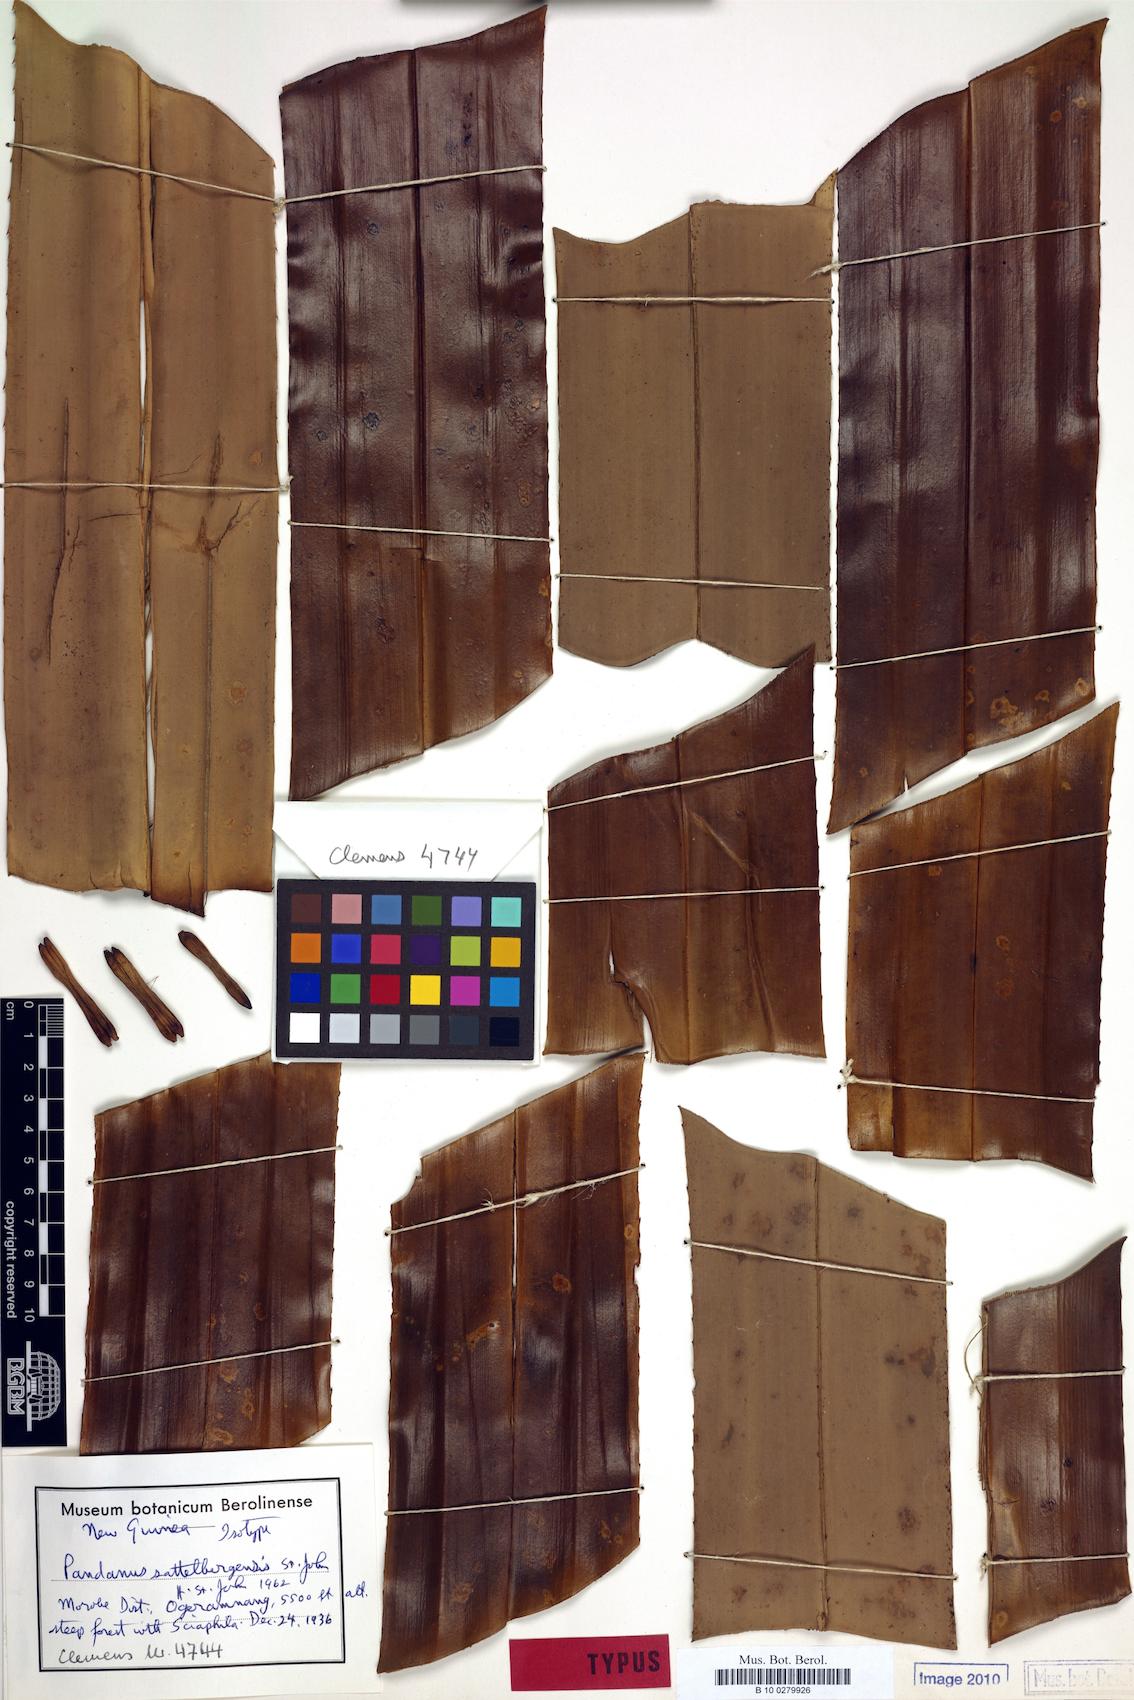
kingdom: Plantae
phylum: Tracheophyta
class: Liliopsida
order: Pandanales
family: Pandanaceae
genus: Pandanus
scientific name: Pandanus aggregatus
